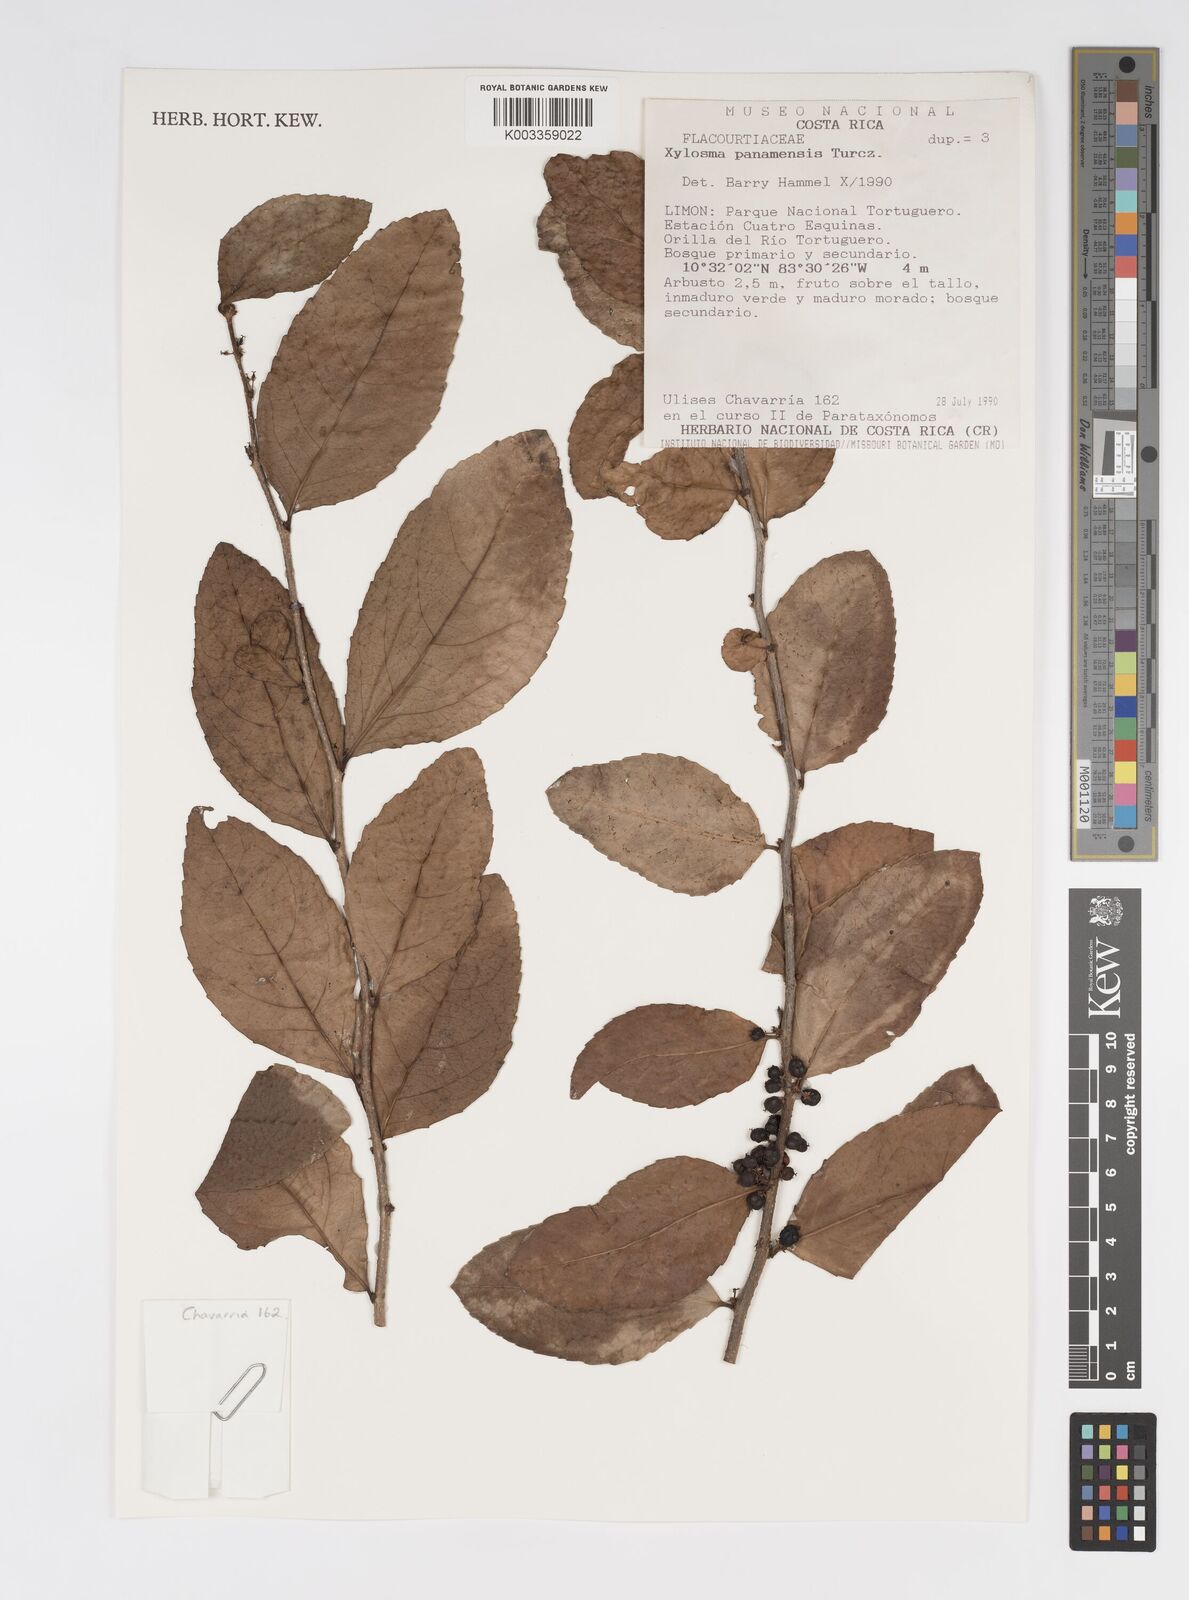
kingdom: Plantae
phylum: Tracheophyta
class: Magnoliopsida
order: Malpighiales
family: Salicaceae
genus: Xylosma
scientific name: Xylosma panamensis
